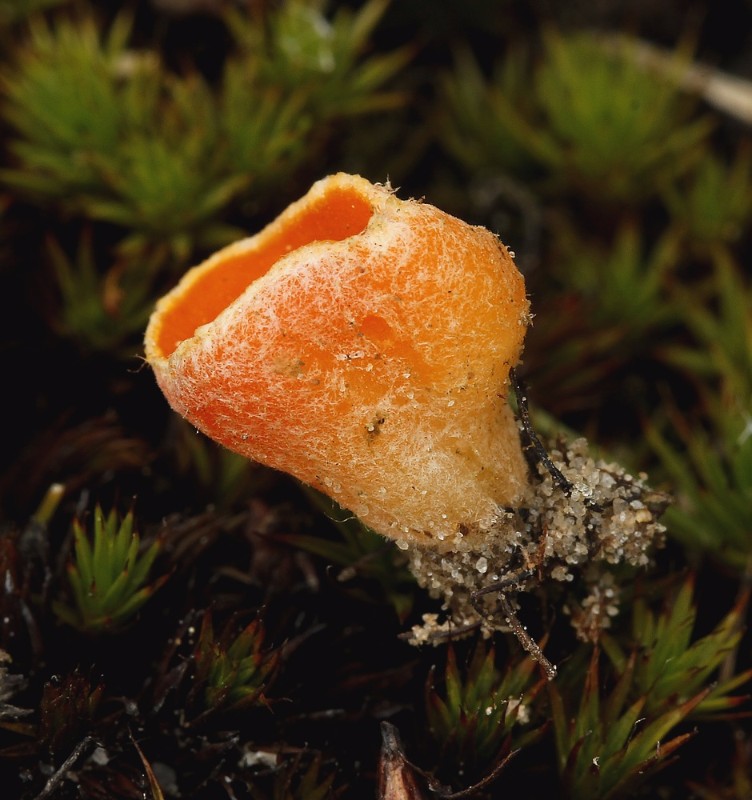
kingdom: Fungi
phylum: Ascomycota
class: Pezizomycetes
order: Pezizales
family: Pyronemataceae
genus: Neottiella
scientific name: Neottiella rutilans
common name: jomfruhår-mosbæger
